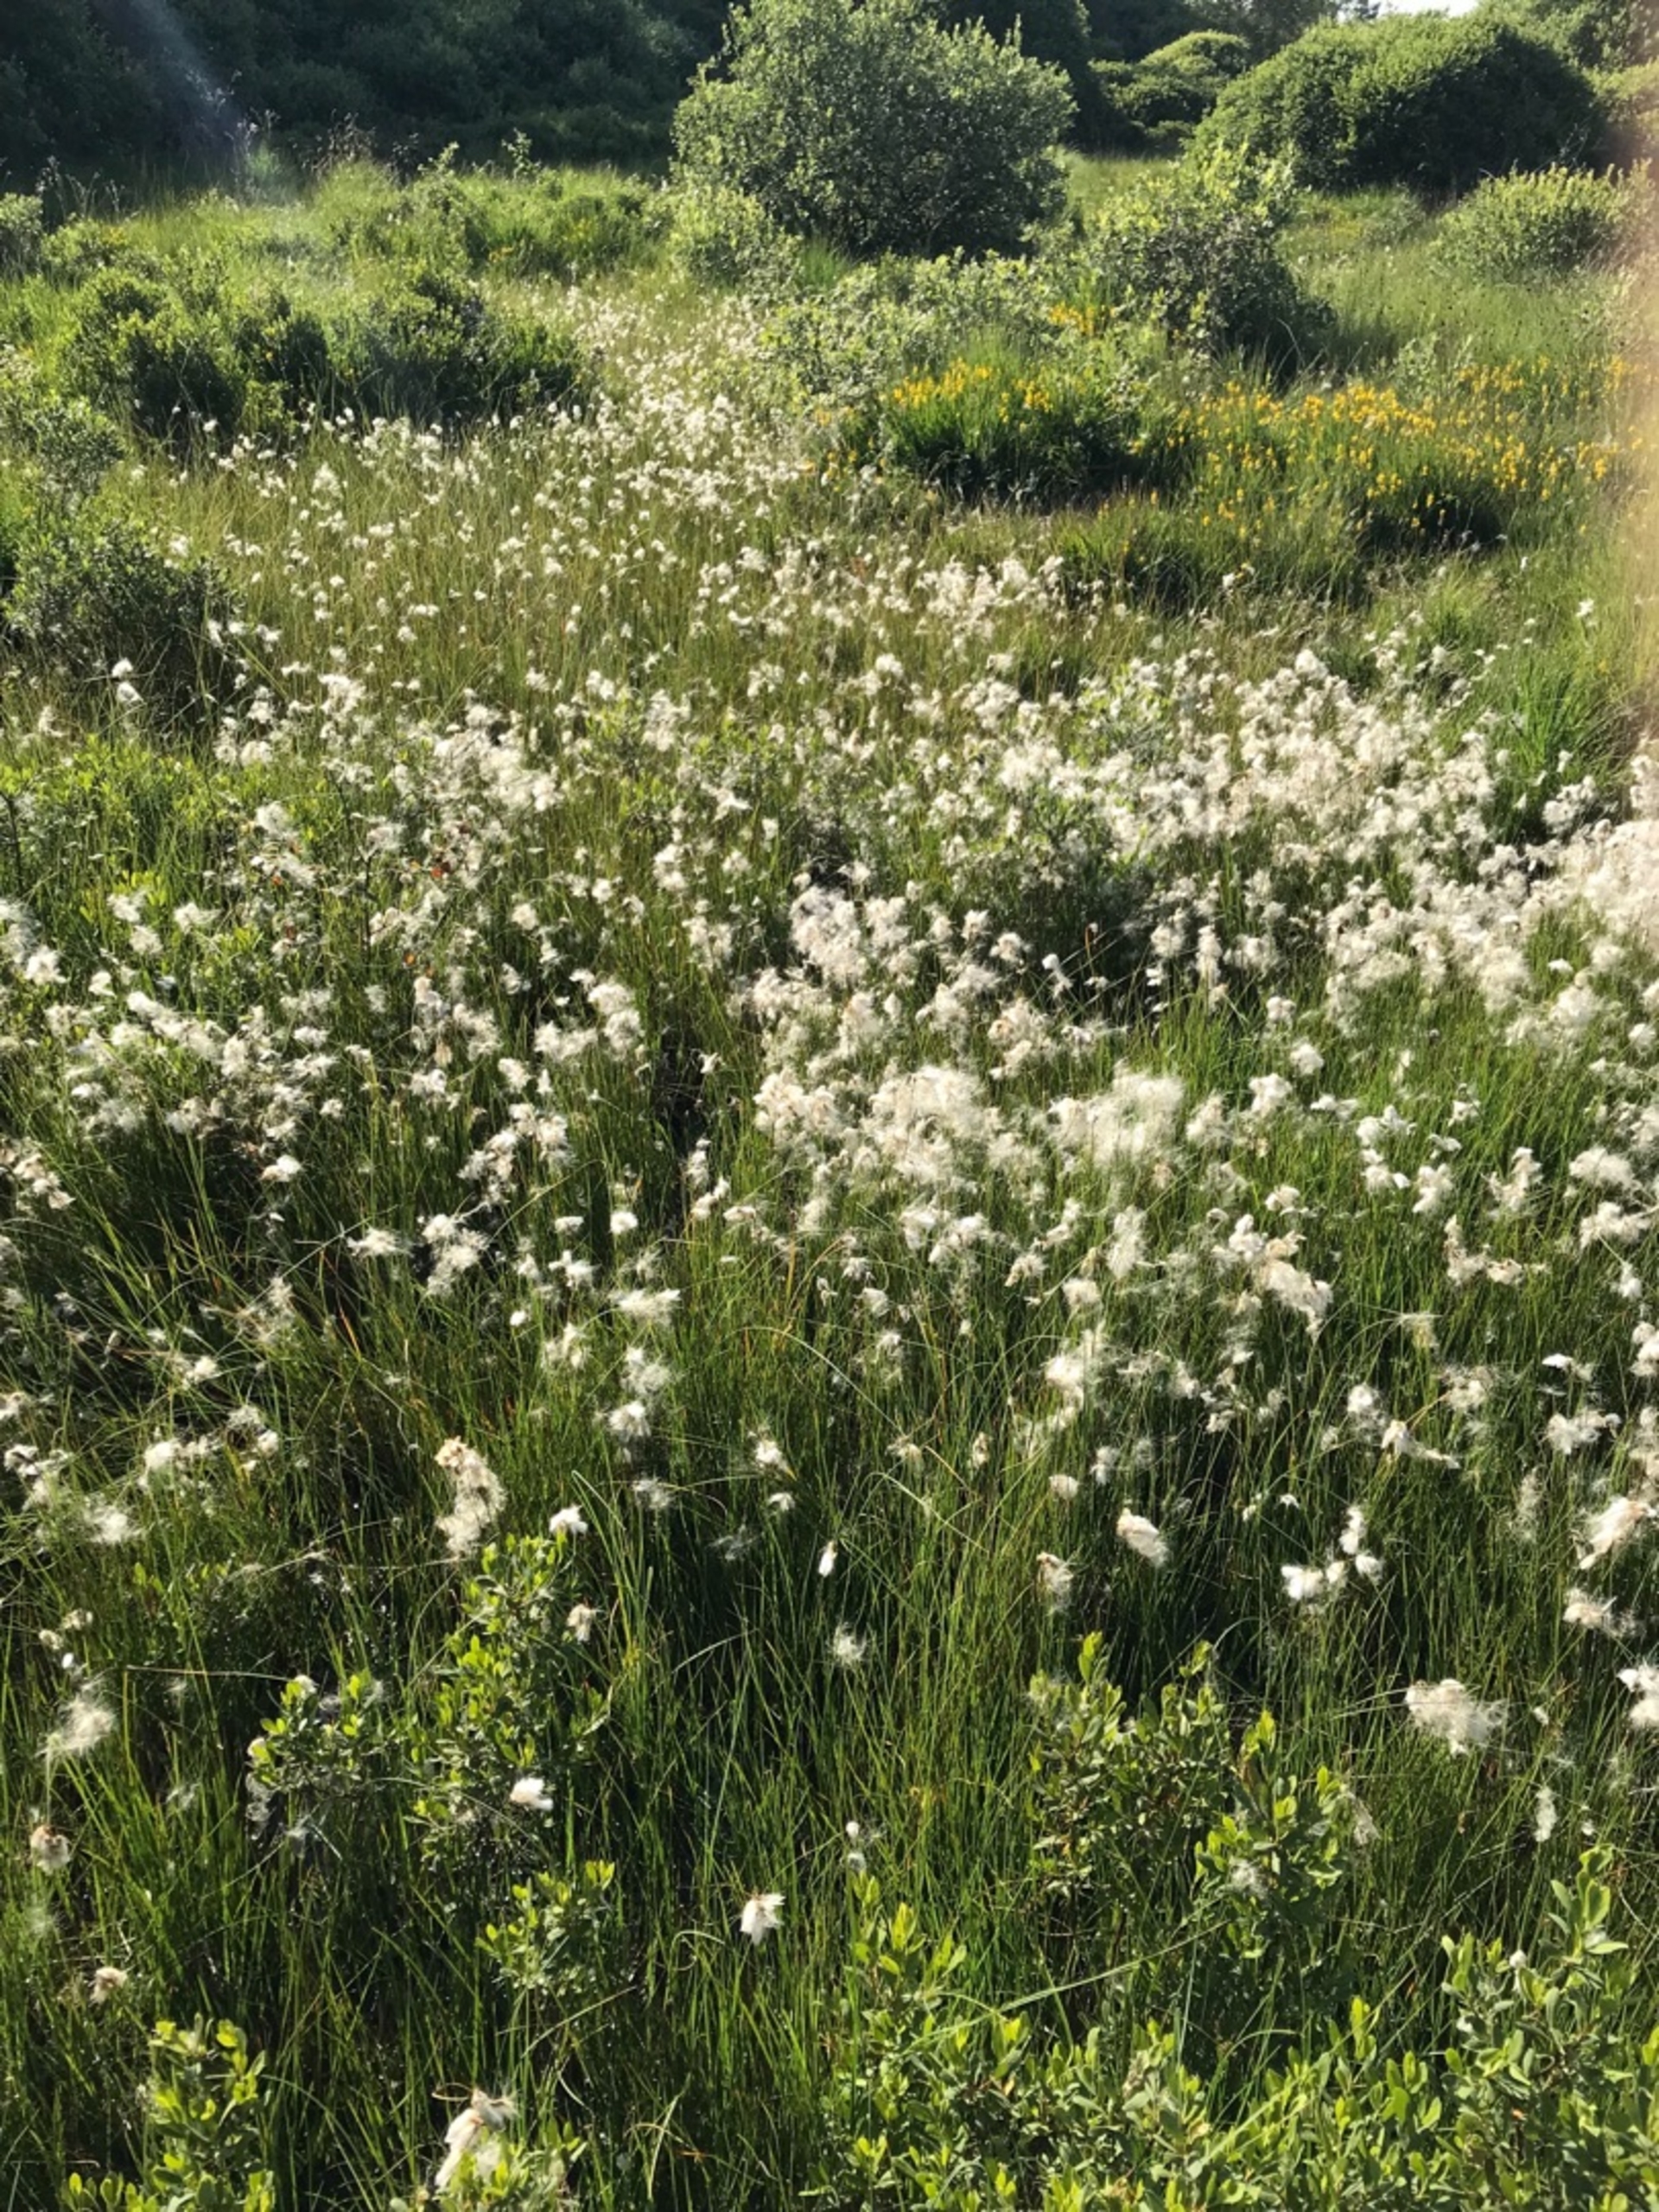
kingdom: Plantae
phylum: Tracheophyta
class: Liliopsida
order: Poales
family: Cyperaceae
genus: Eriophorum
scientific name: Eriophorum gracile
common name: Fin kæruld
